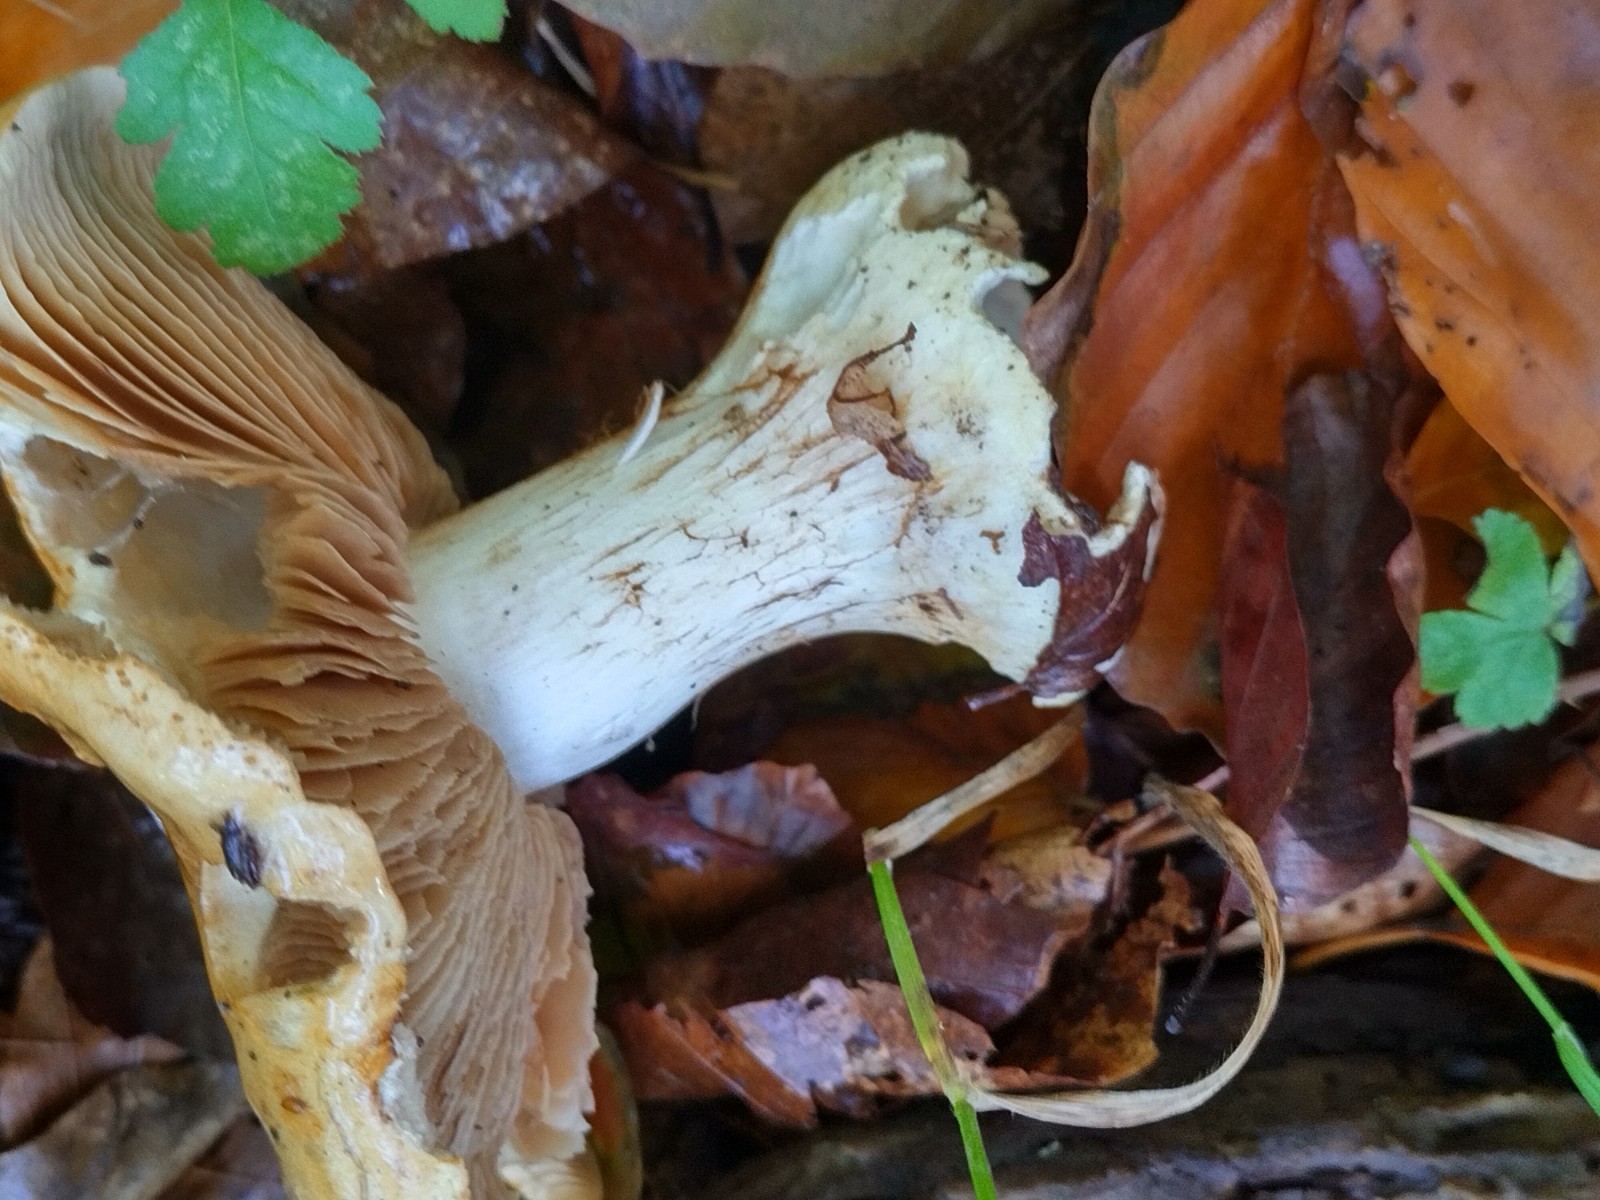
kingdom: Fungi
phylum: Basidiomycota
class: Agaricomycetes
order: Agaricales
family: Cortinariaceae
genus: Phlegmacium
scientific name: Phlegmacium rhizophorum
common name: finkornet slørhat
